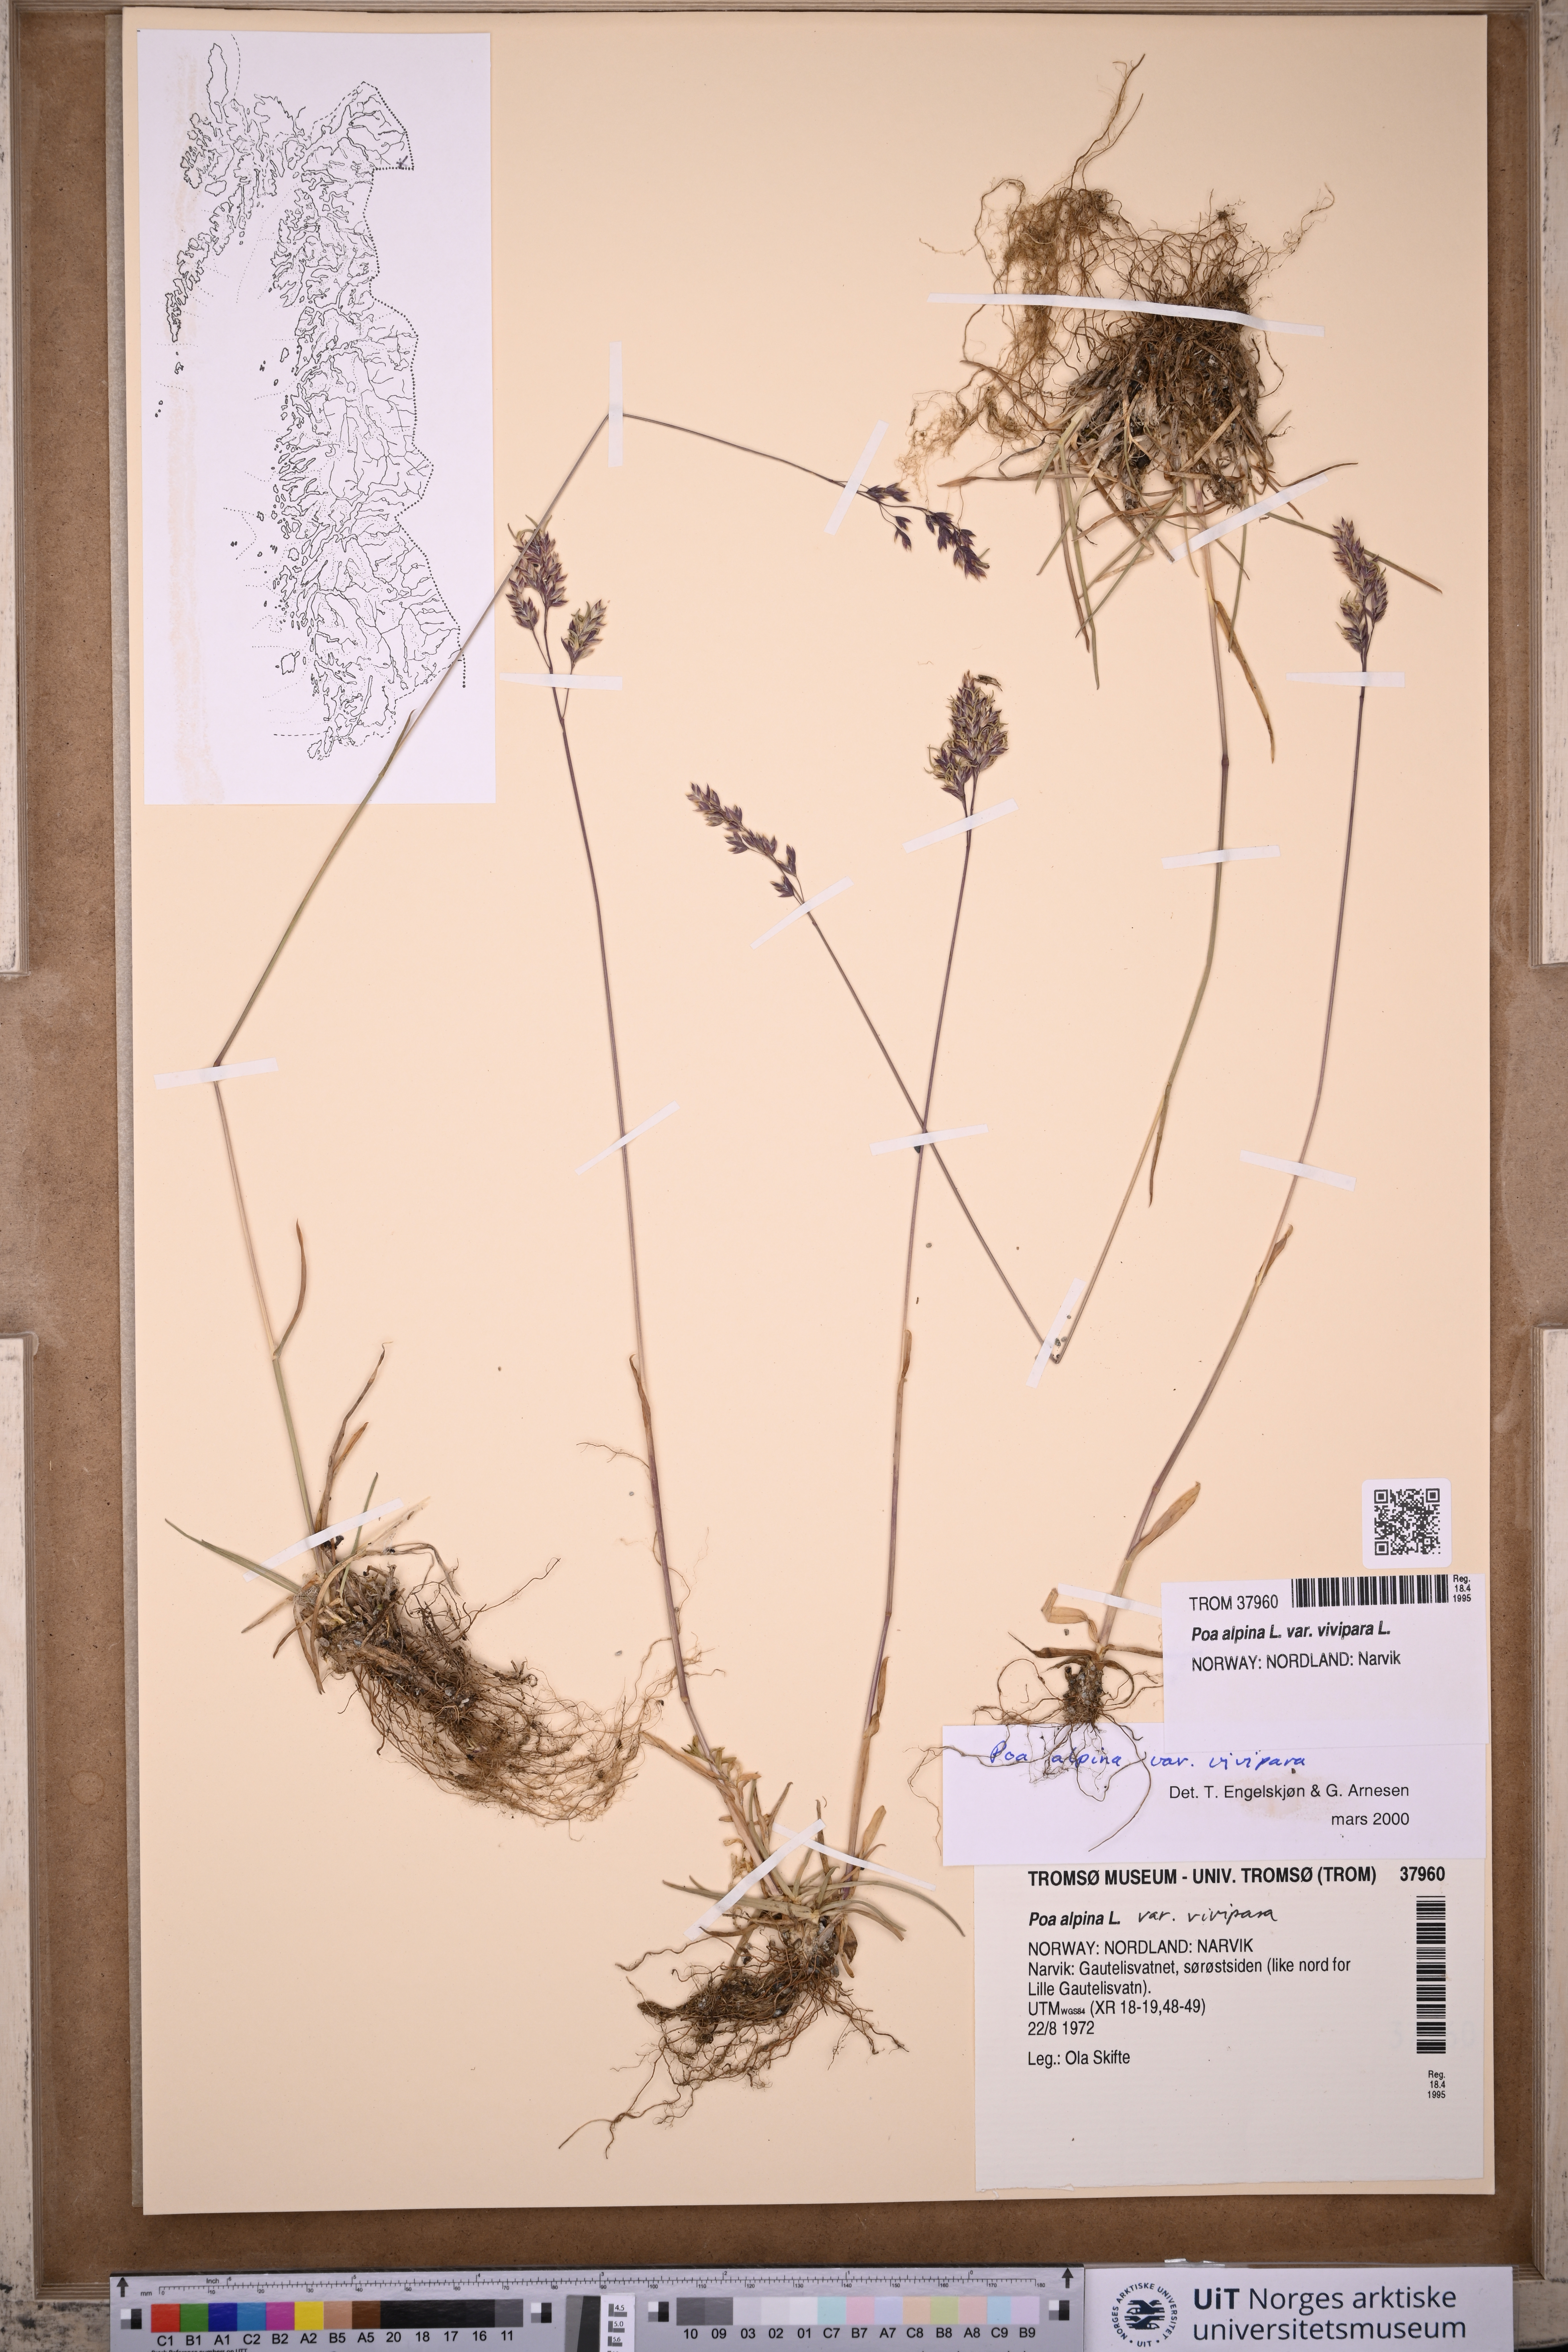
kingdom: Plantae
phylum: Tracheophyta
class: Liliopsida
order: Poales
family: Poaceae
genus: Poa
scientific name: Poa alpina
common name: Alpine bluegrass
